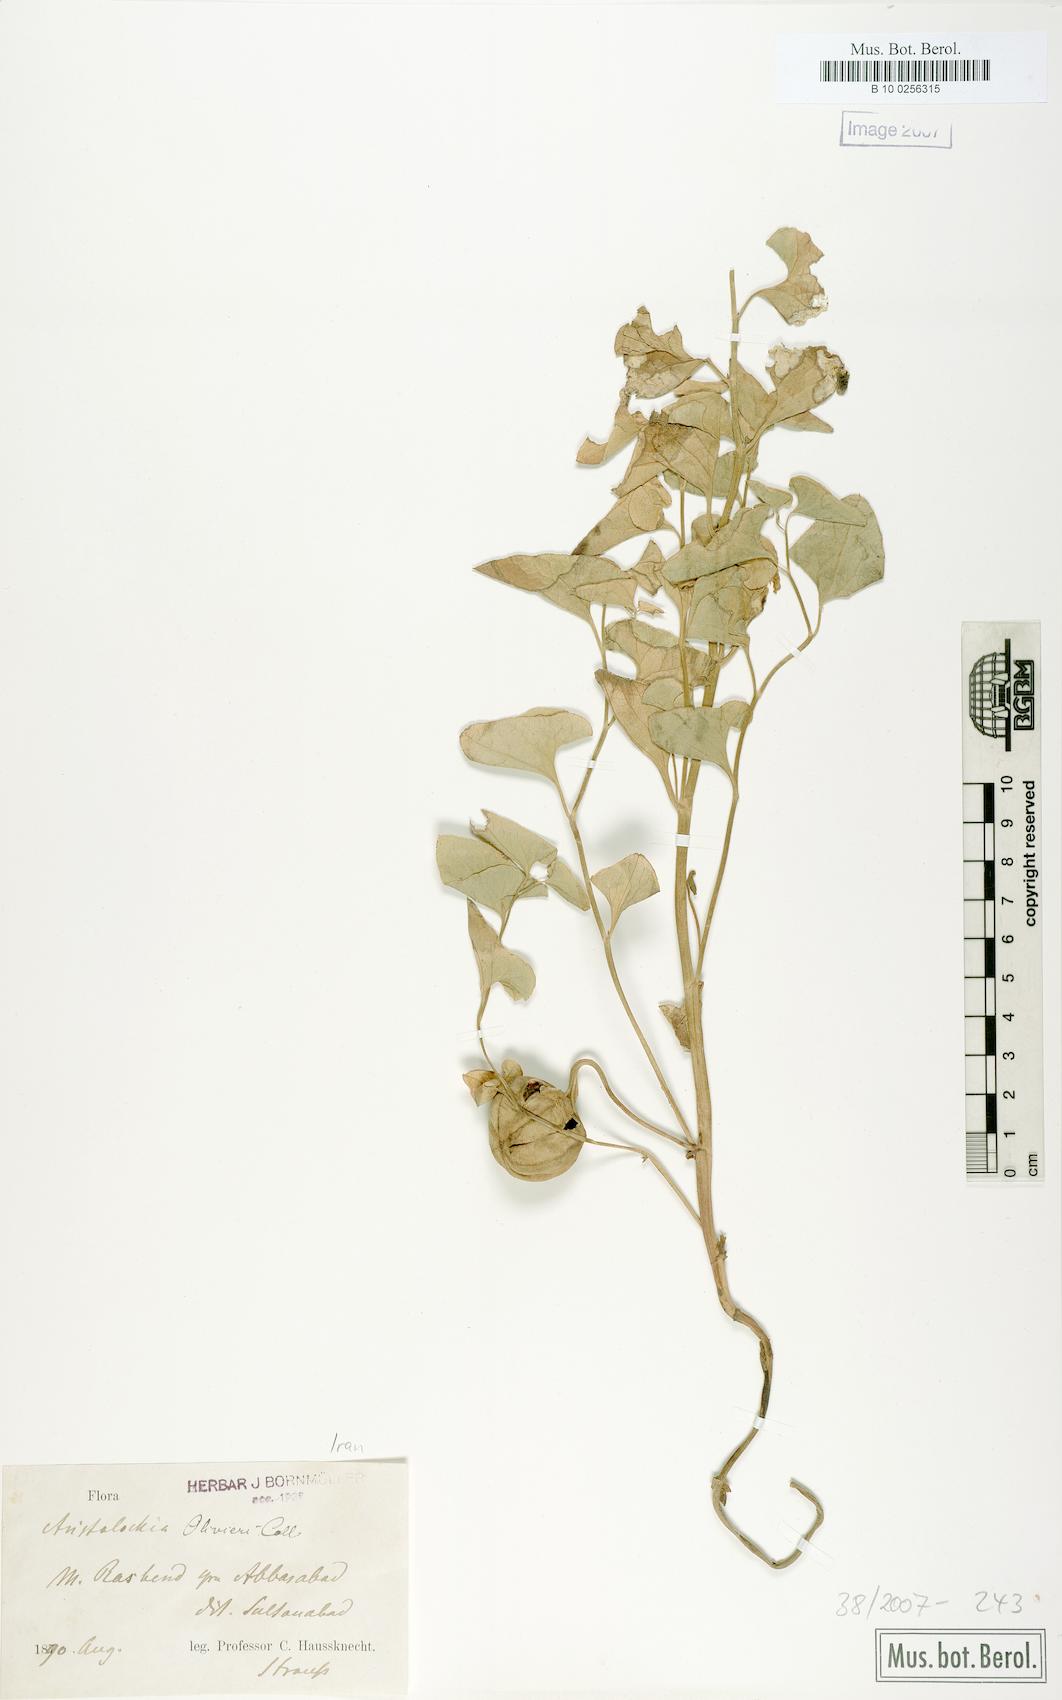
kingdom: Plantae
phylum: Tracheophyta
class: Magnoliopsida
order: Piperales
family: Aristolochiaceae
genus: Aristolochia
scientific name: Aristolochia olivieri
